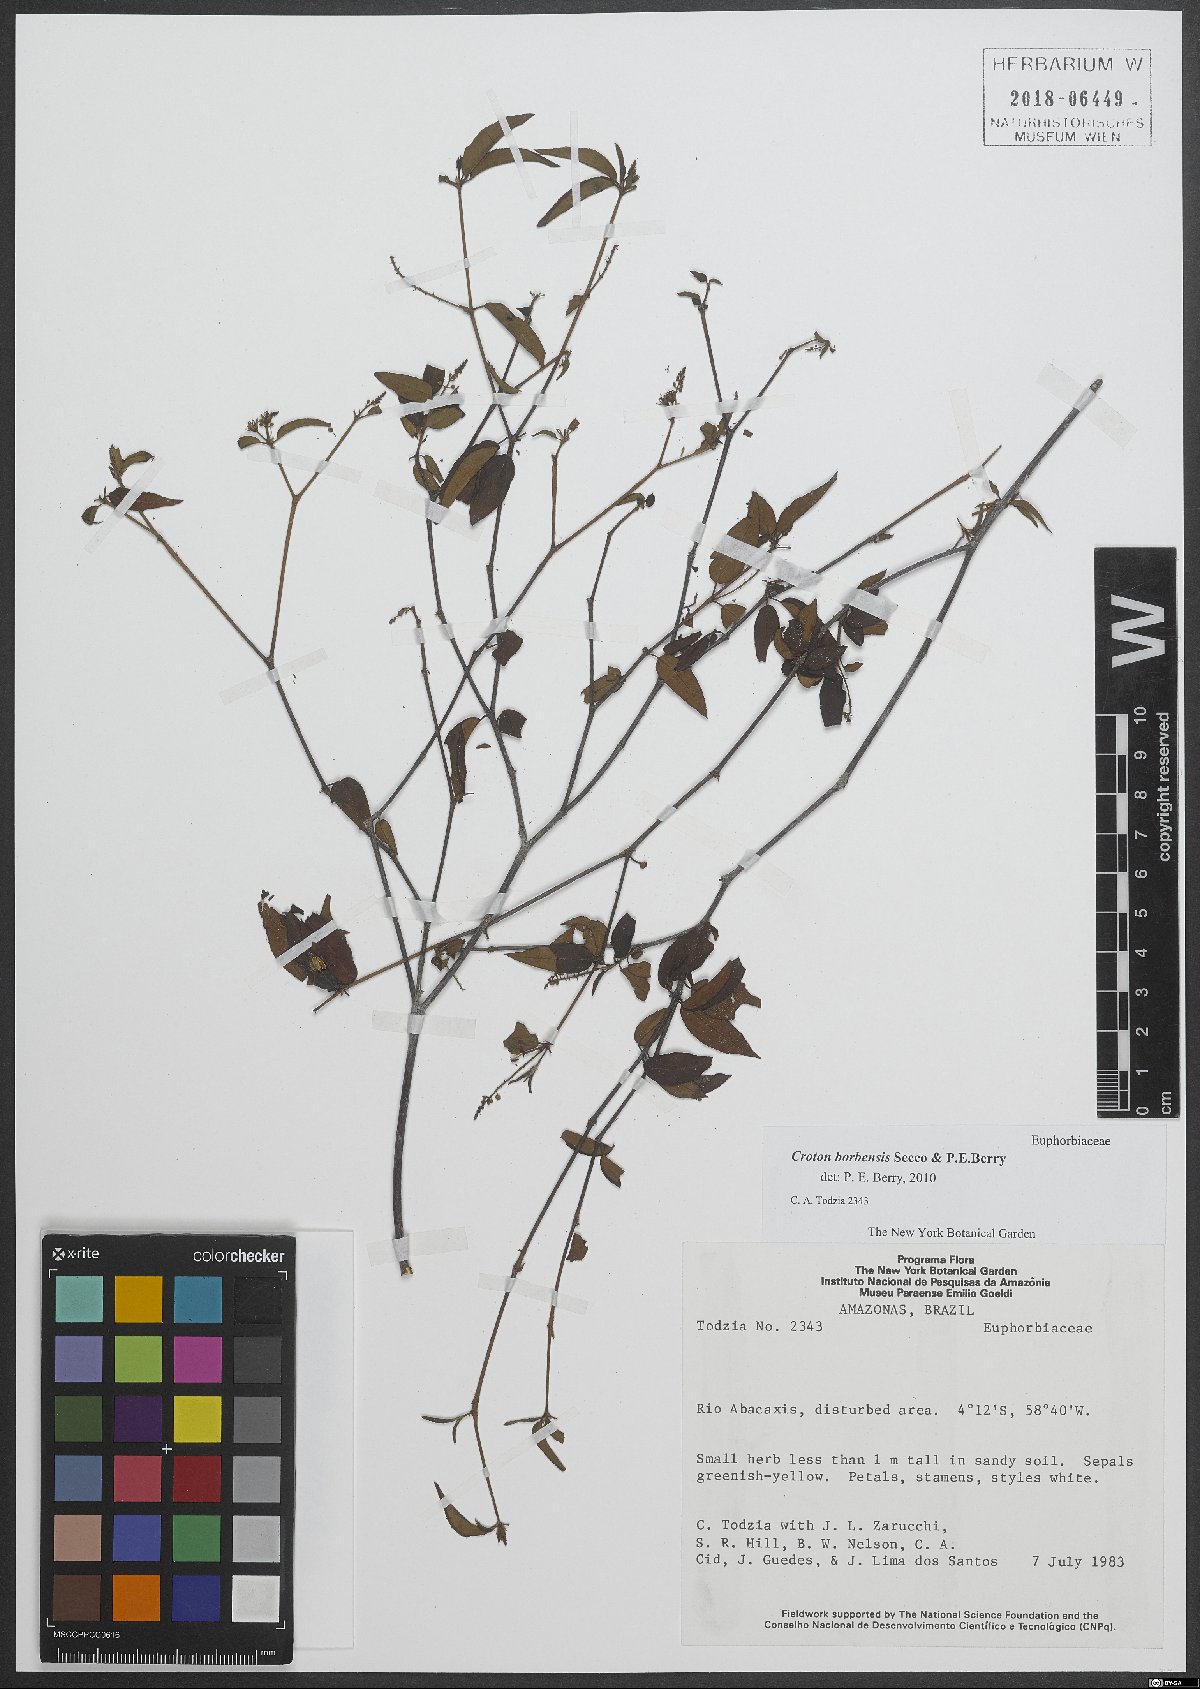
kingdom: Plantae
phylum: Tracheophyta
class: Magnoliopsida
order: Malpighiales
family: Euphorbiaceae
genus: Croton
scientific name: Croton borbensis
